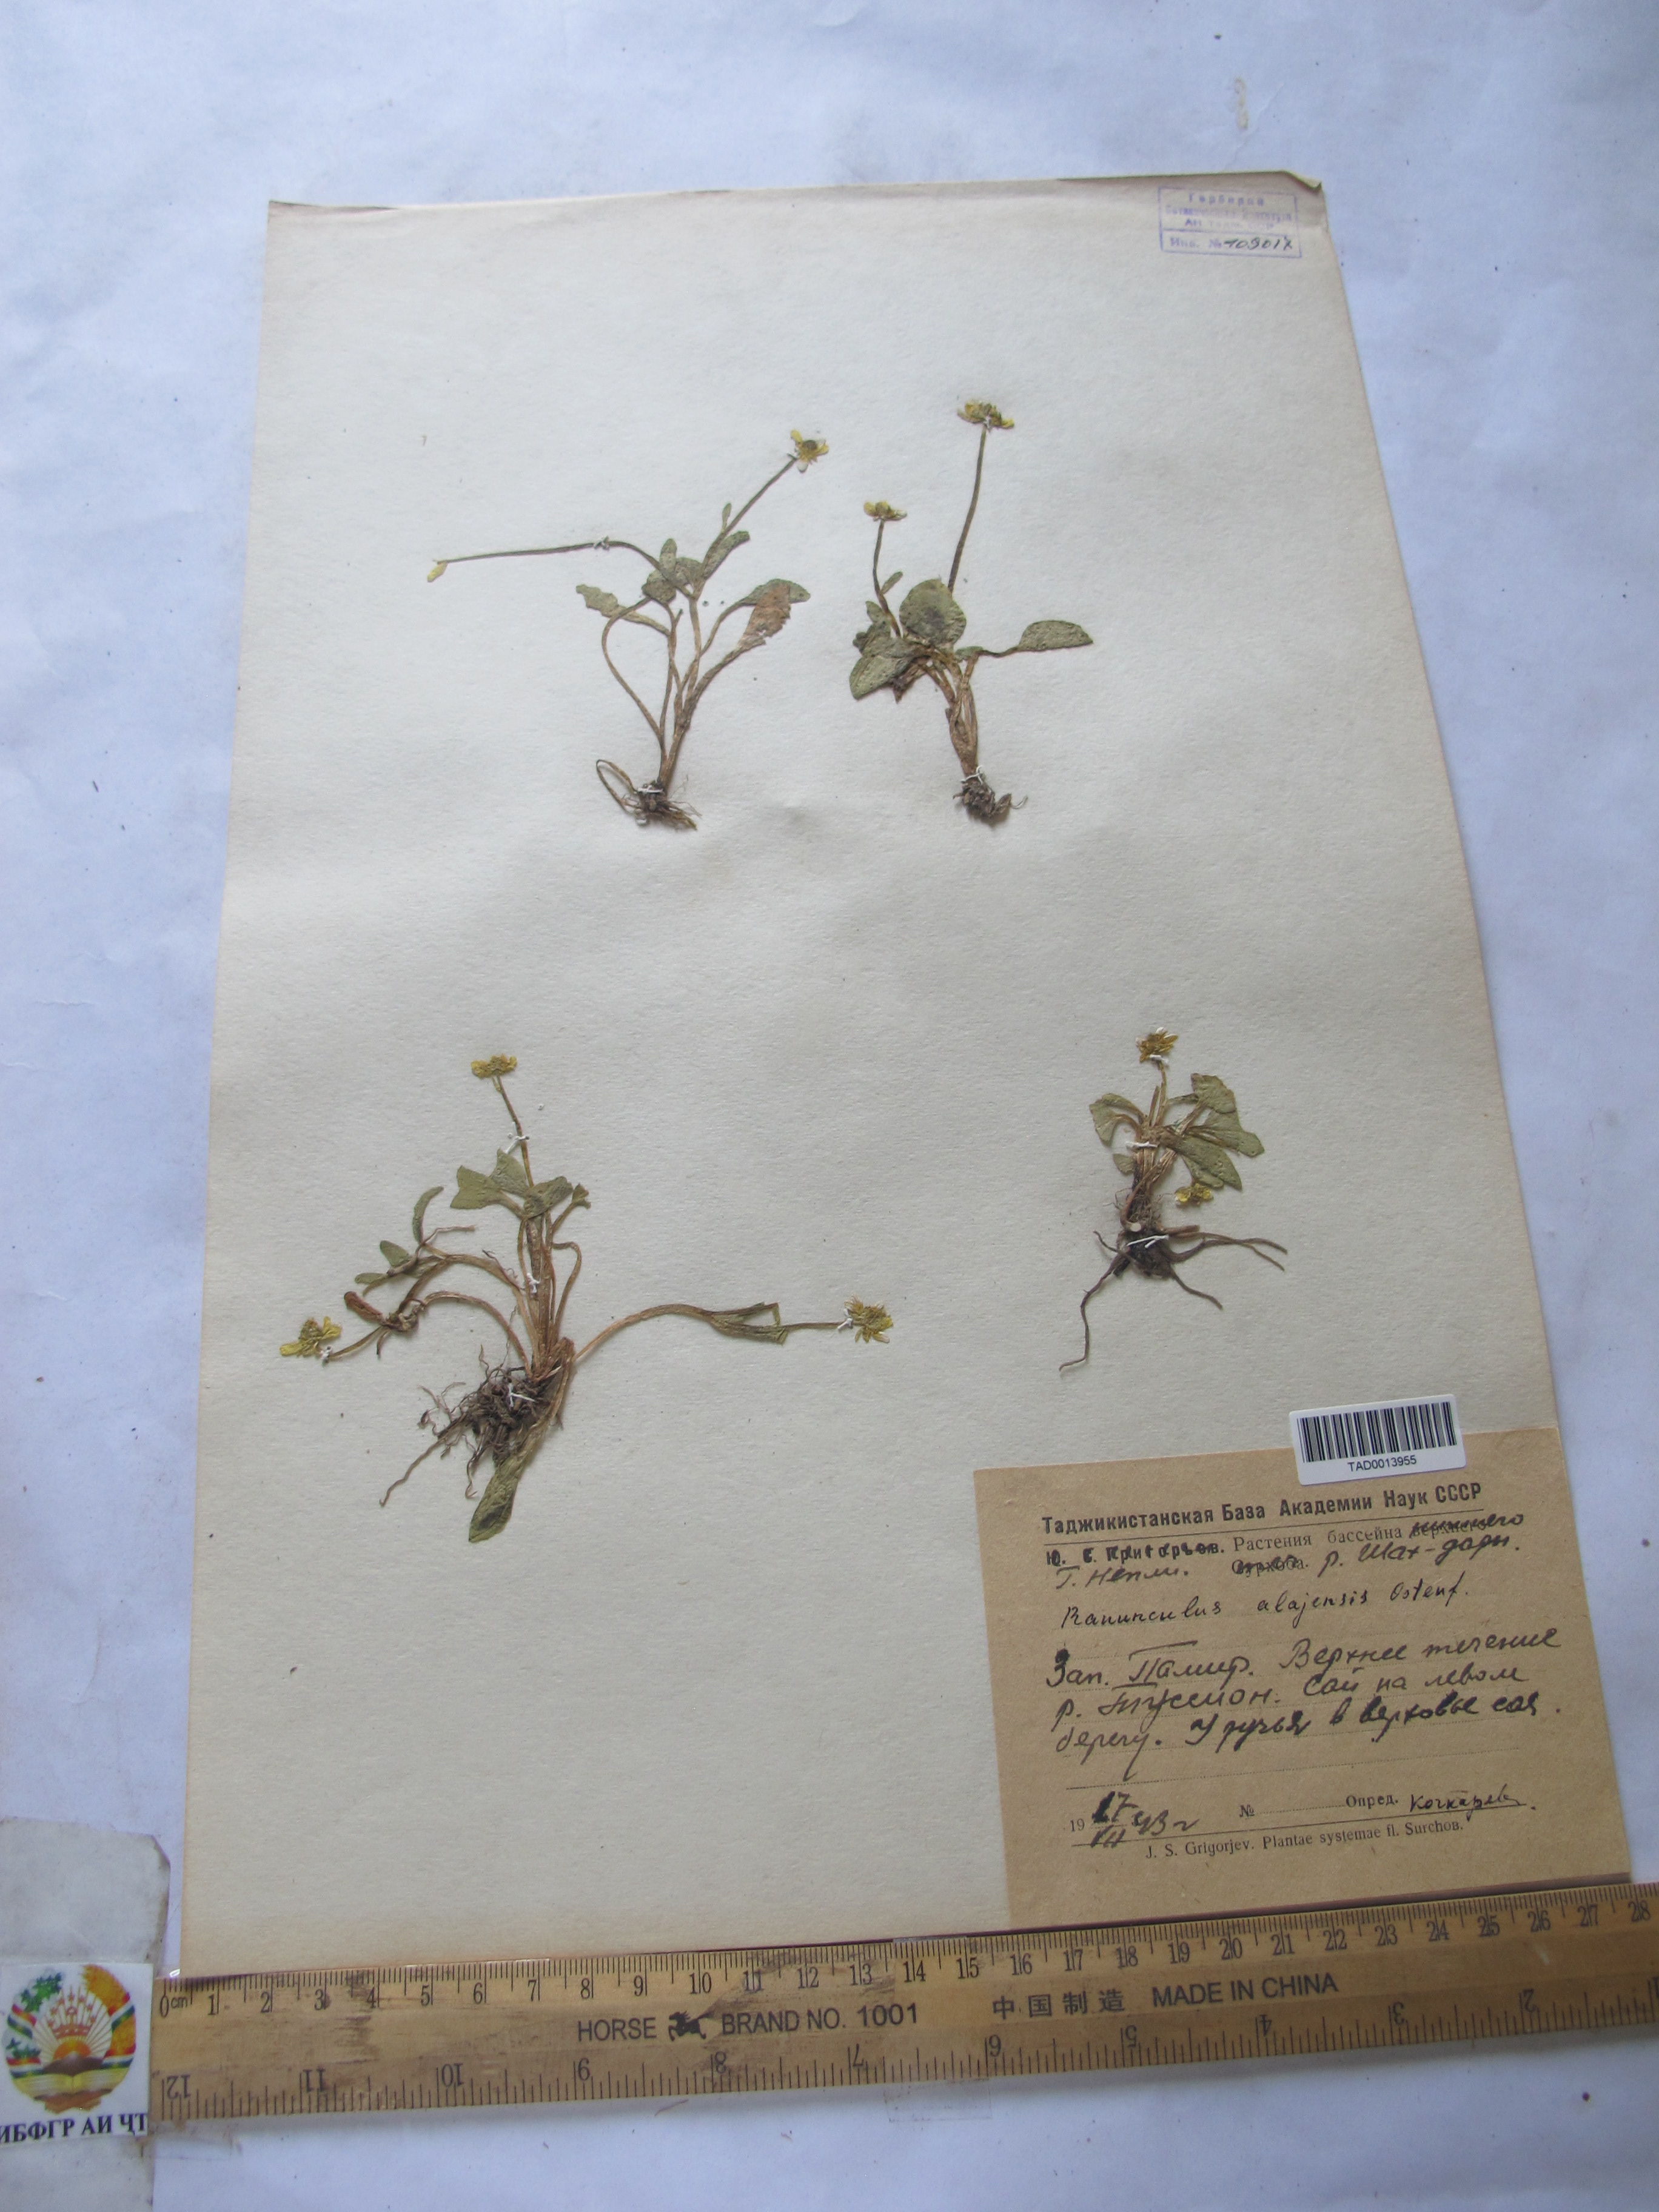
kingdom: Plantae
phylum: Tracheophyta
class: Magnoliopsida
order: Ranunculales
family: Ranunculaceae
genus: Ranunculus
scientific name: Ranunculus alaiensis
